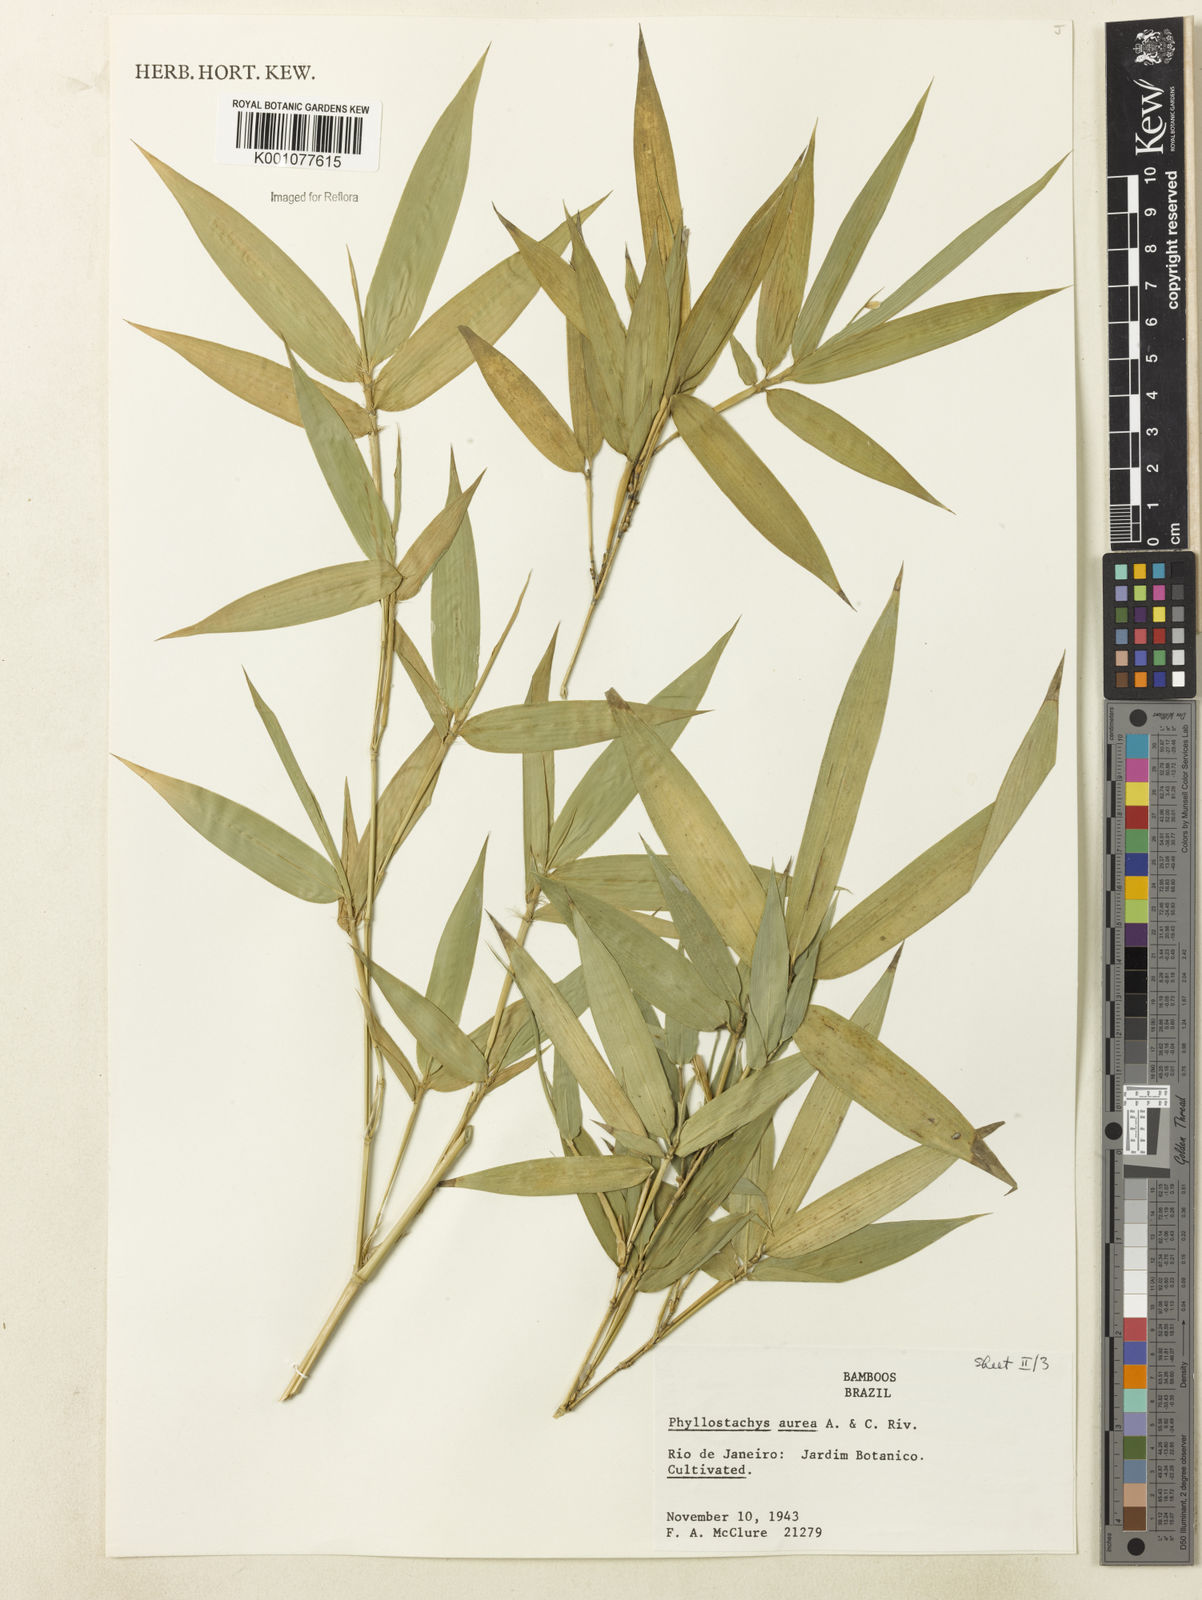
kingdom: Plantae
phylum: Tracheophyta
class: Liliopsida
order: Poales
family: Poaceae
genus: Phyllostachys
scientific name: Phyllostachys
